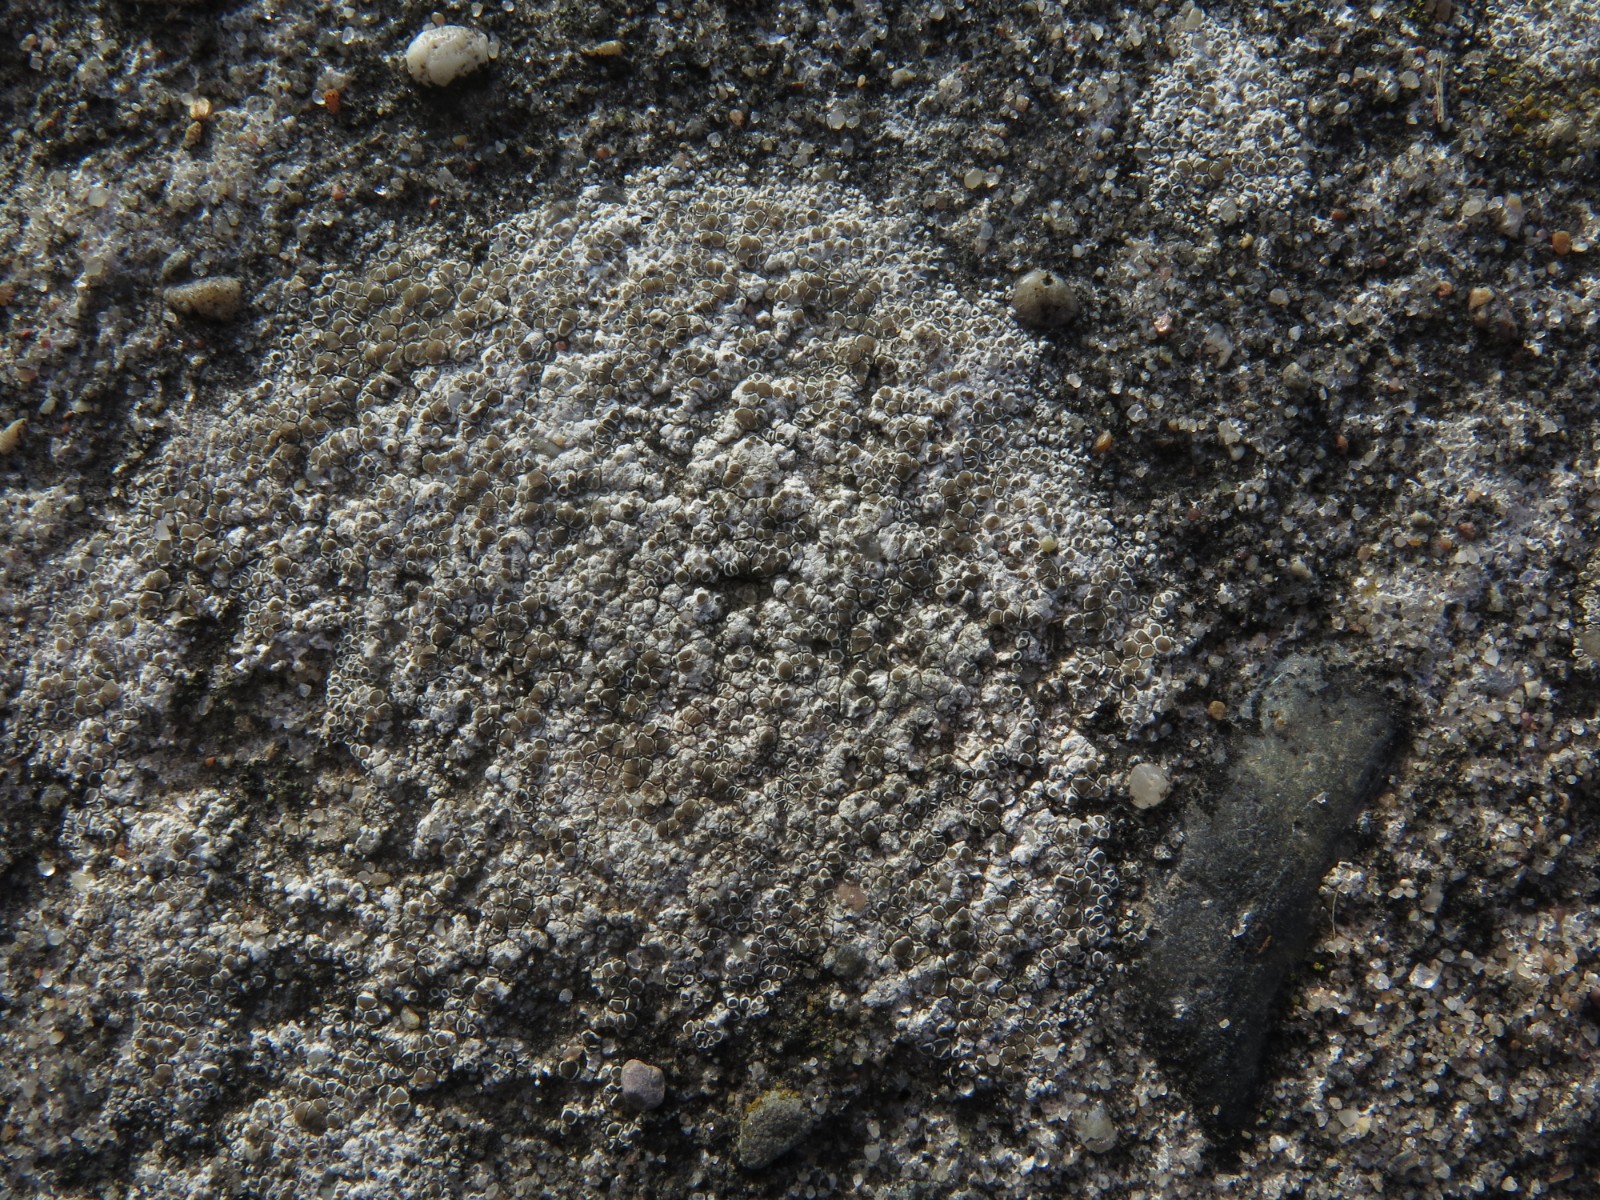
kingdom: Fungi
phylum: Ascomycota
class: Lecanoromycetes
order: Lecanorales
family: Lecanoraceae
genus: Polyozosia
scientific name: Polyozosia albescens
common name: cement-kantskivelav
